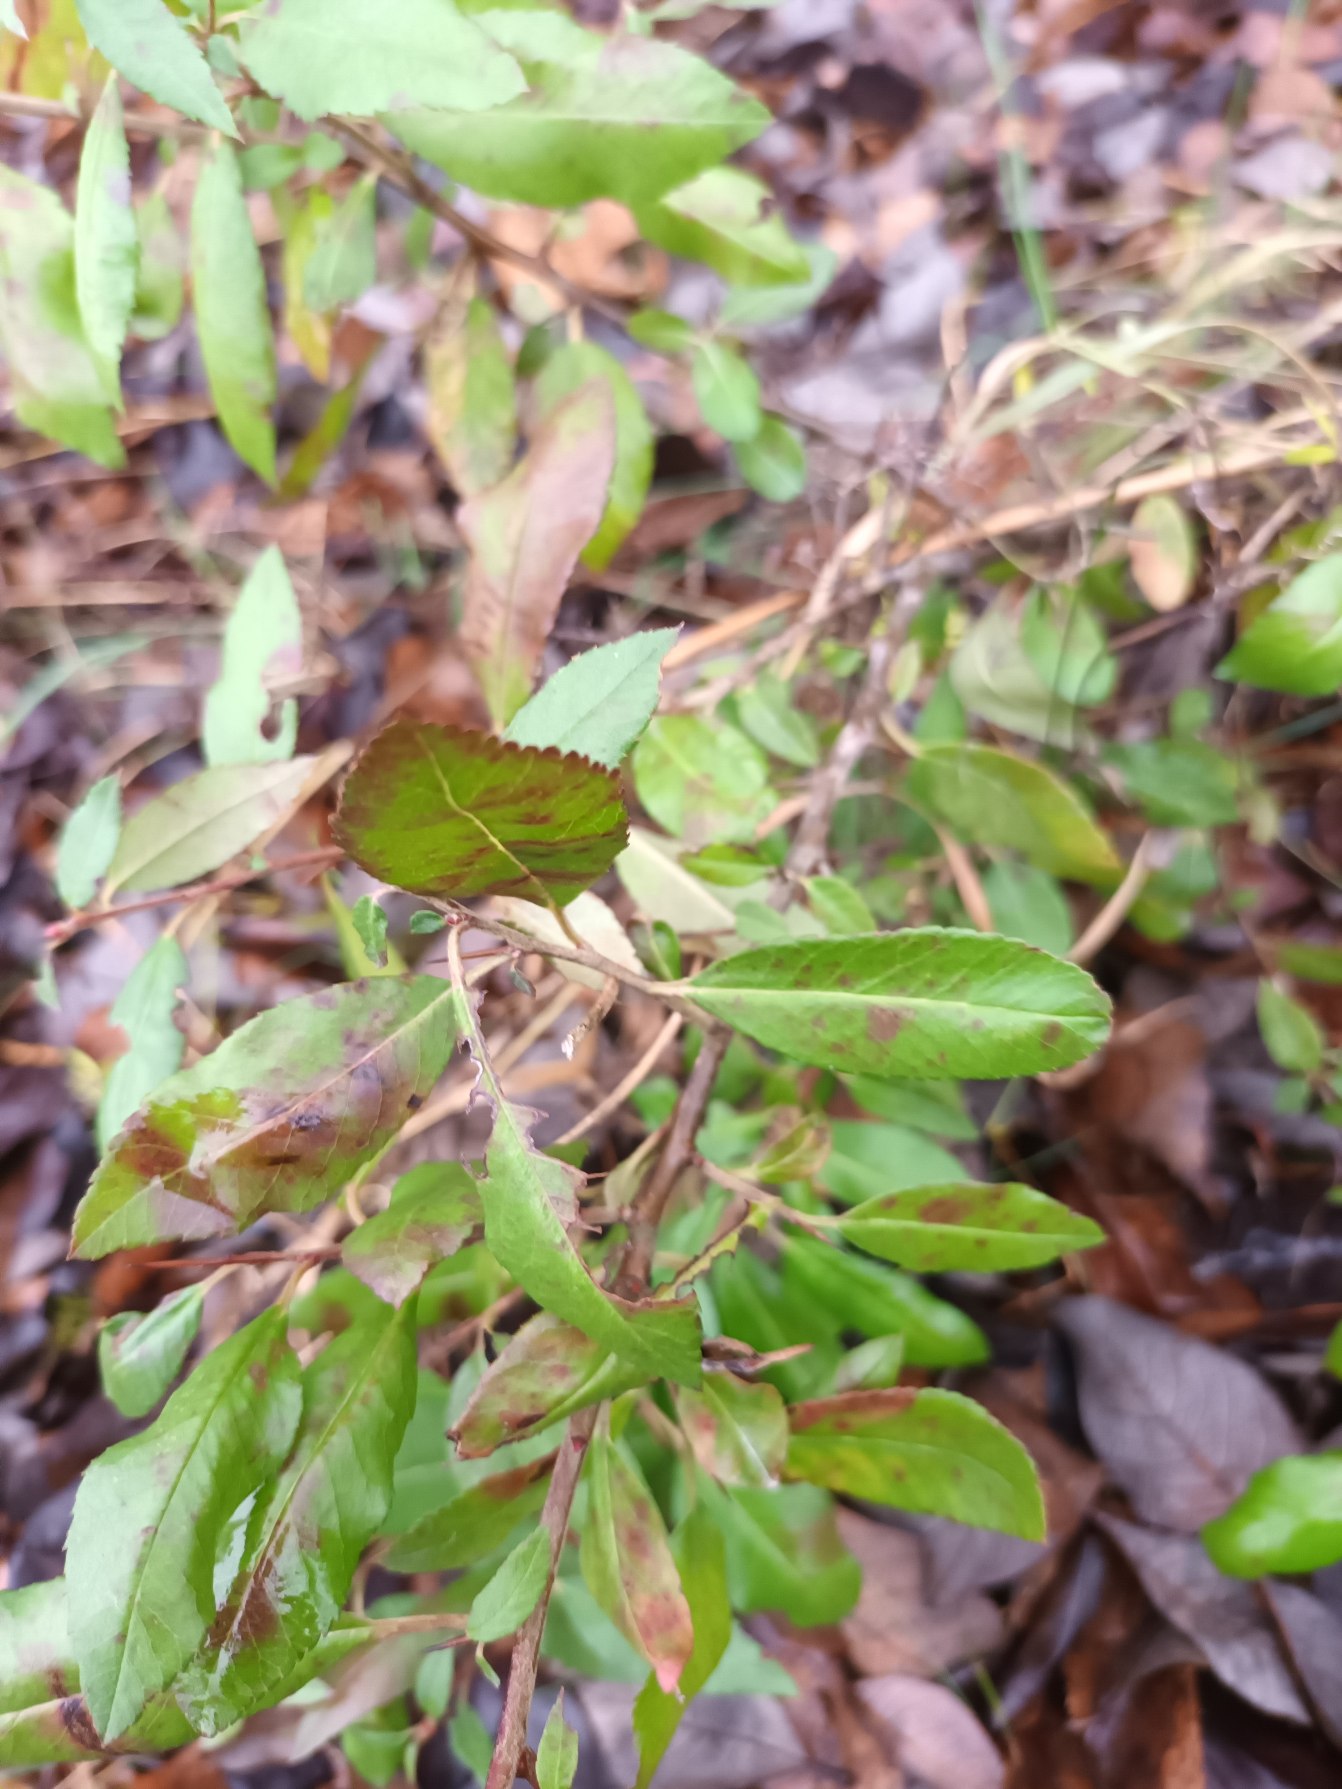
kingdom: Plantae
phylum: Tracheophyta
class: Magnoliopsida
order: Rosales
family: Rosaceae
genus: Pyracantha
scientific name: Pyracantha crenulata
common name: Orangegul ildtorn
